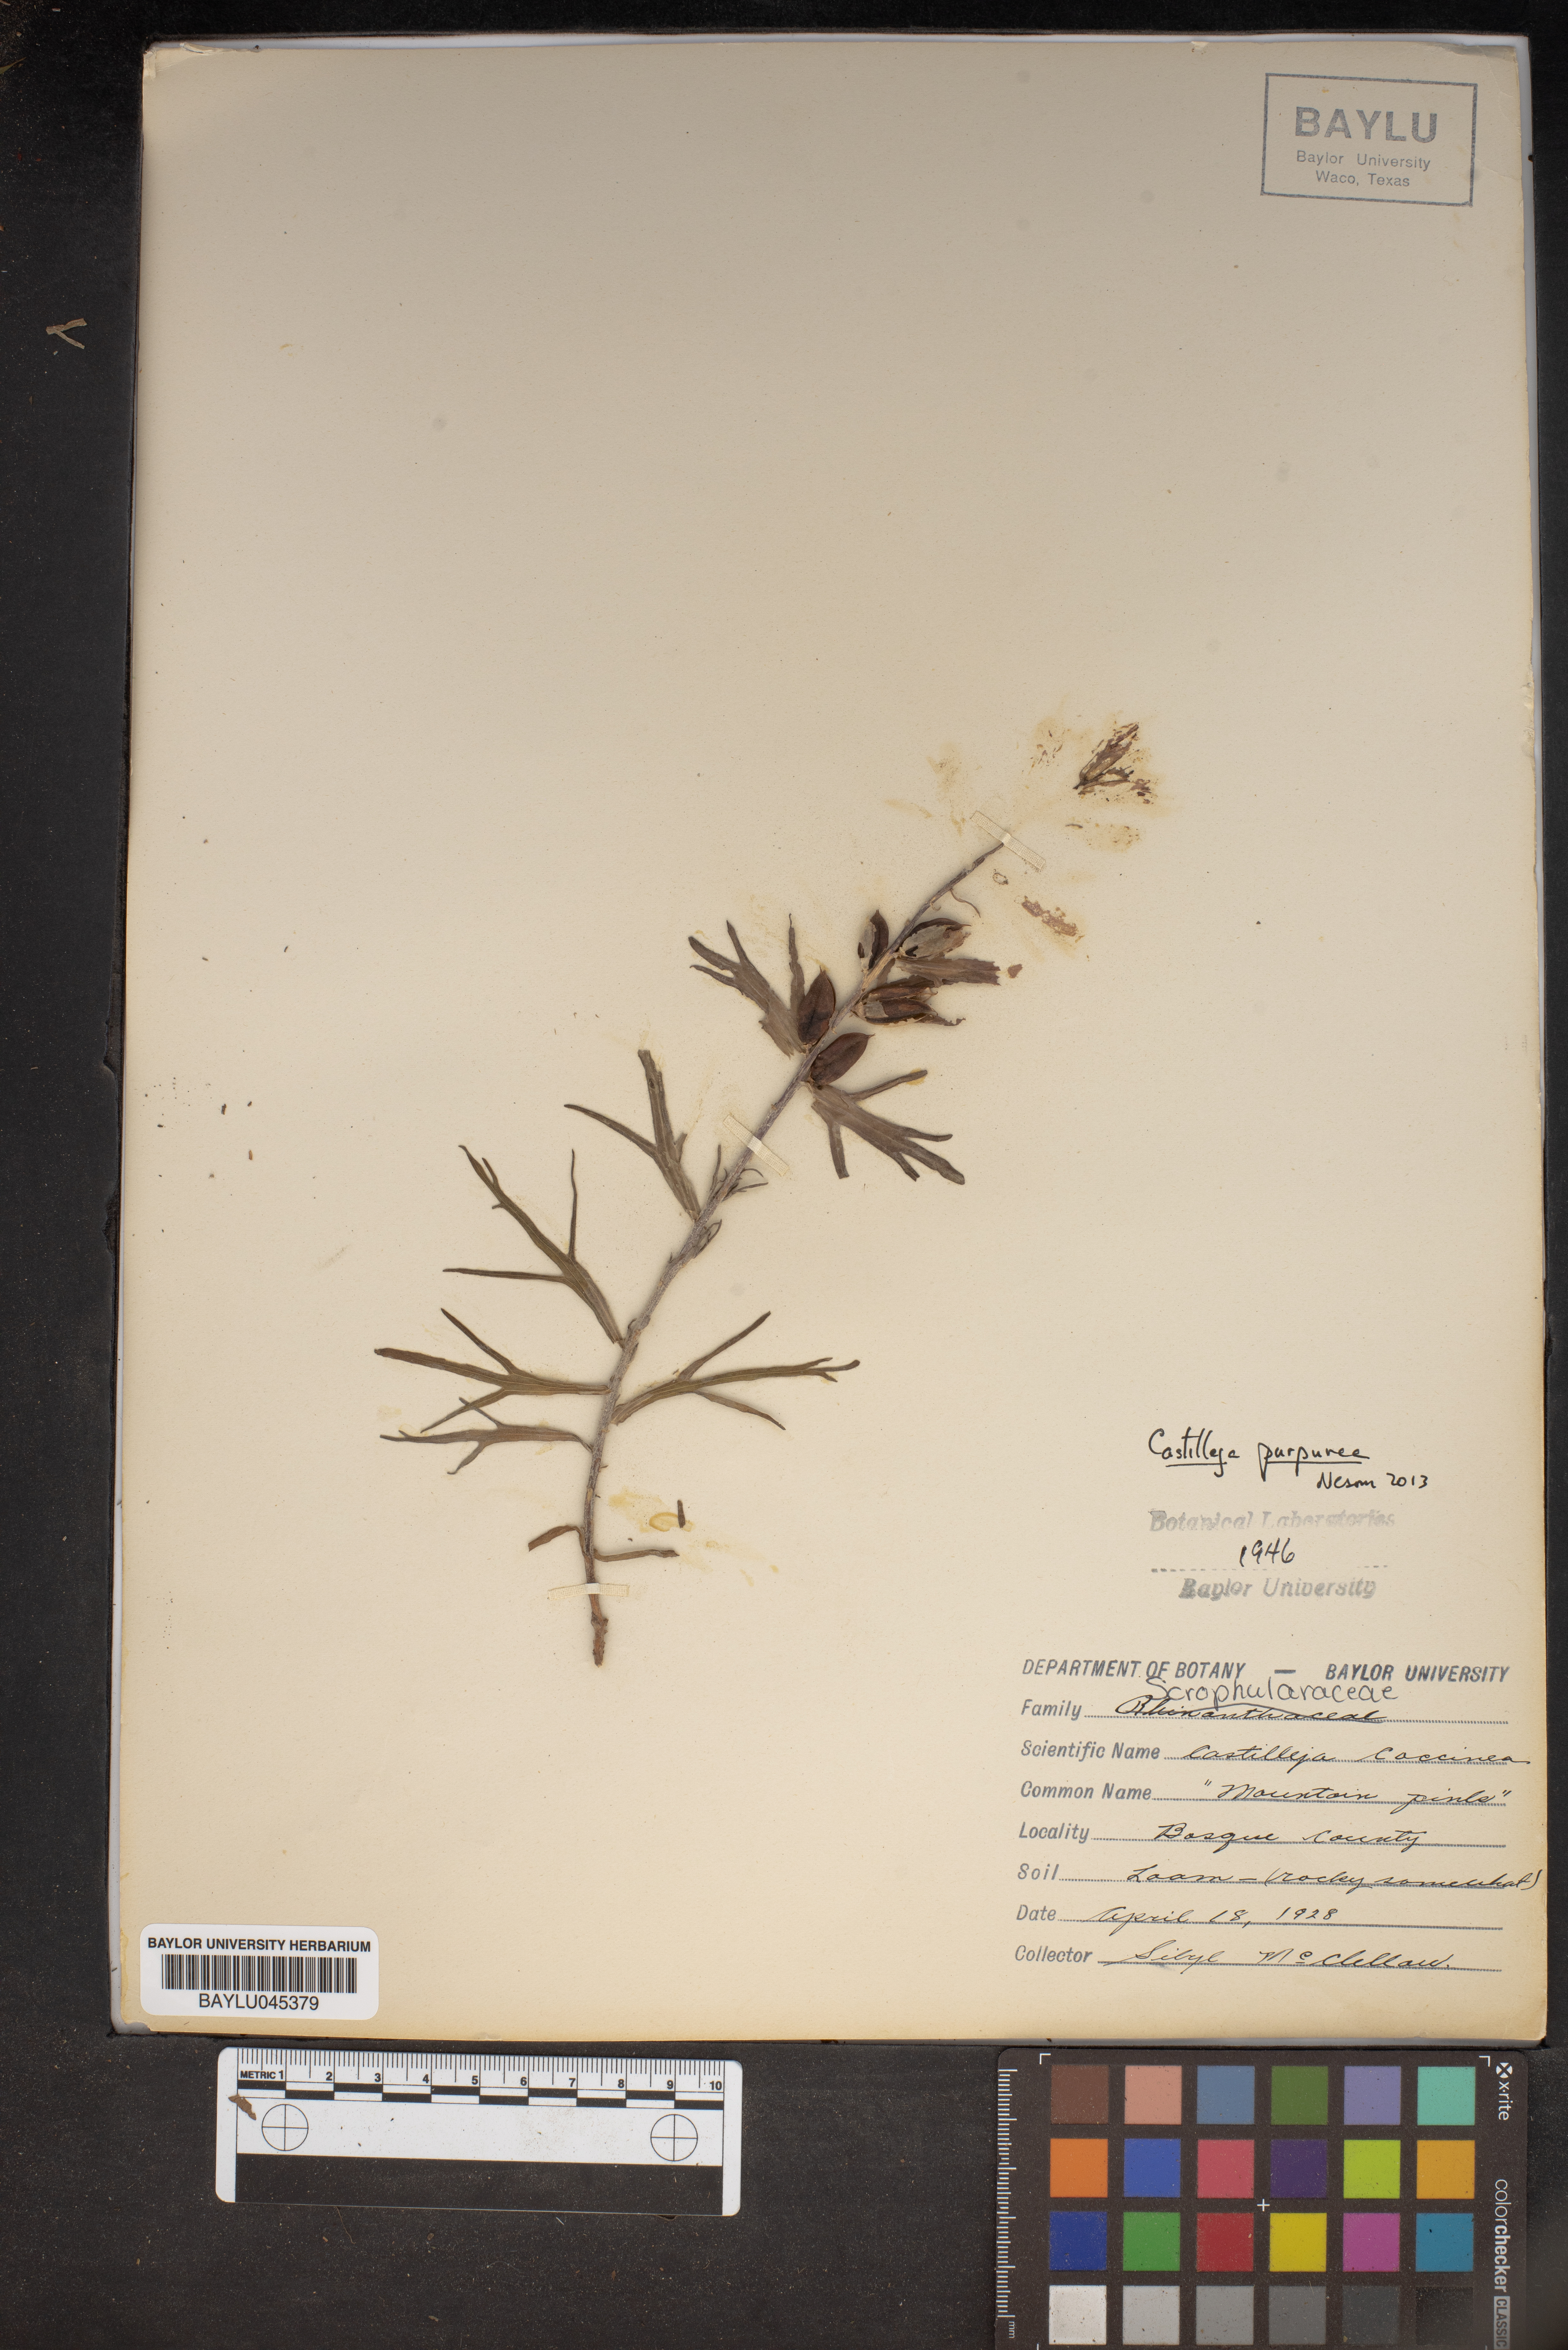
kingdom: Plantae
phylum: Tracheophyta
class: Magnoliopsida
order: Lamiales
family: Orobanchaceae
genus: Castilleja
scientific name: Castilleja coccinea
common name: Scarlet paintbrush
